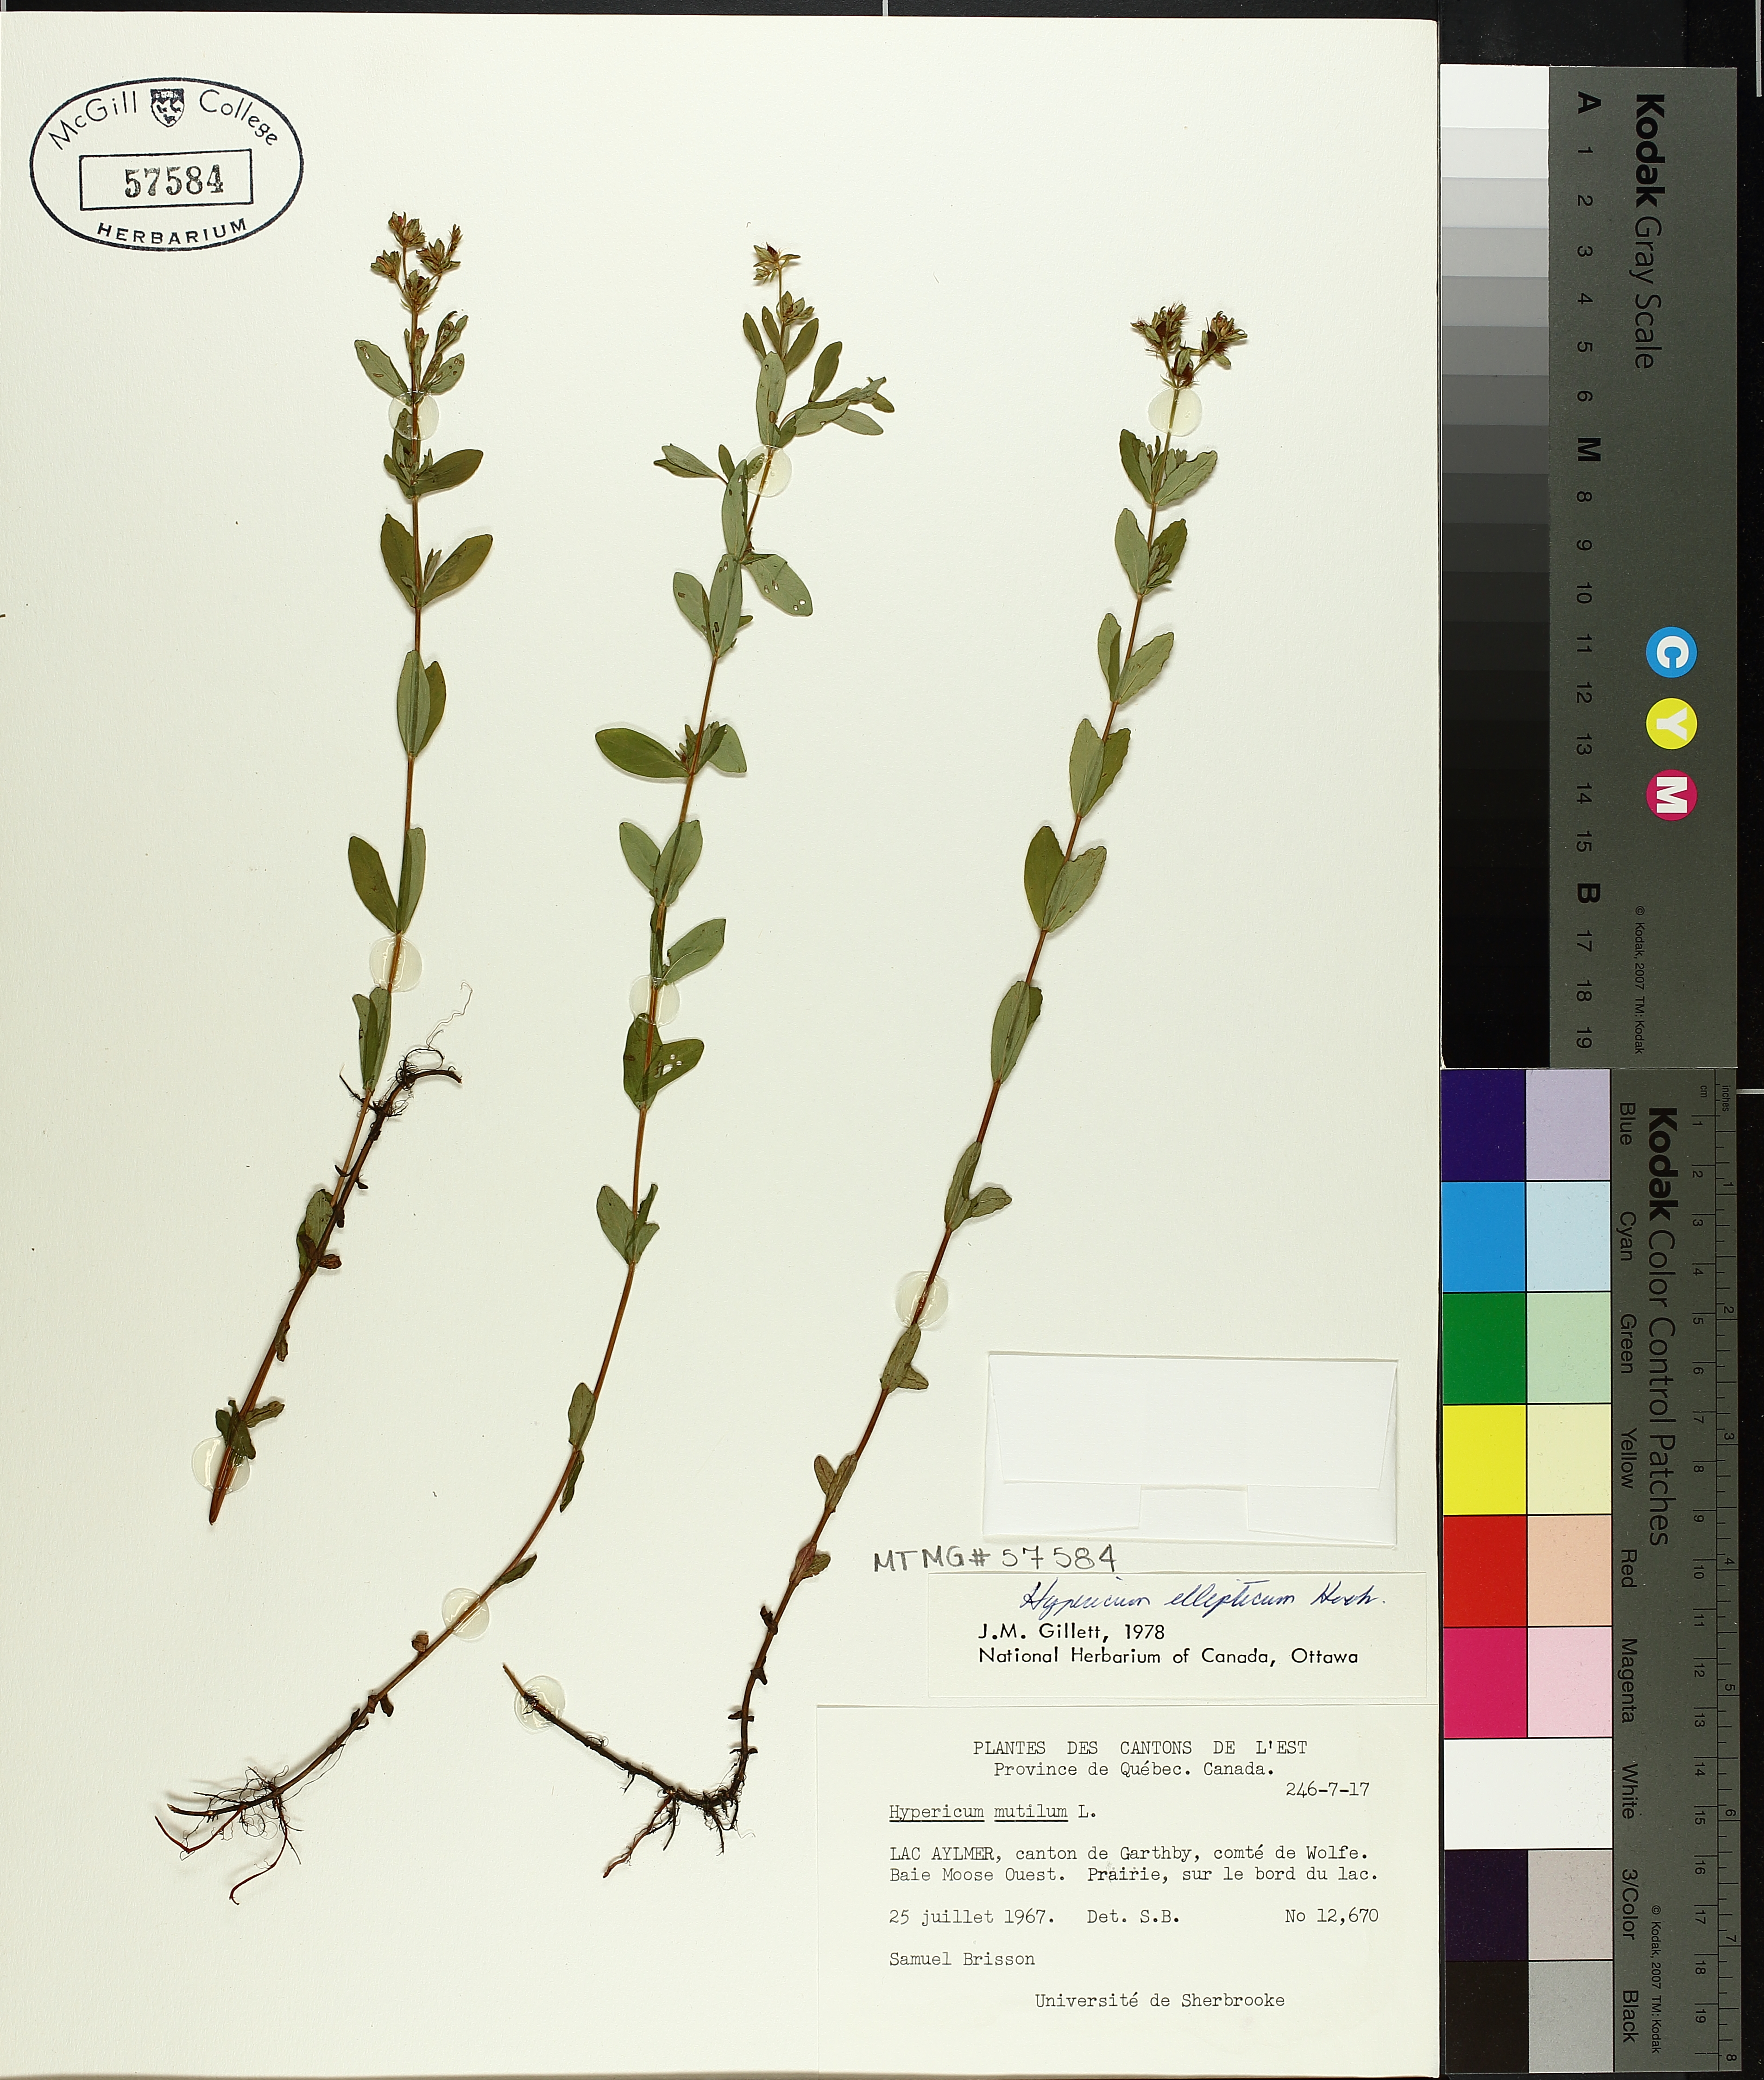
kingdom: Plantae
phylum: Tracheophyta
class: Magnoliopsida
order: Malpighiales
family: Hypericaceae
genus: Hypericum
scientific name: Hypericum ellipticum
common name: Elliptic st. john's-wort
